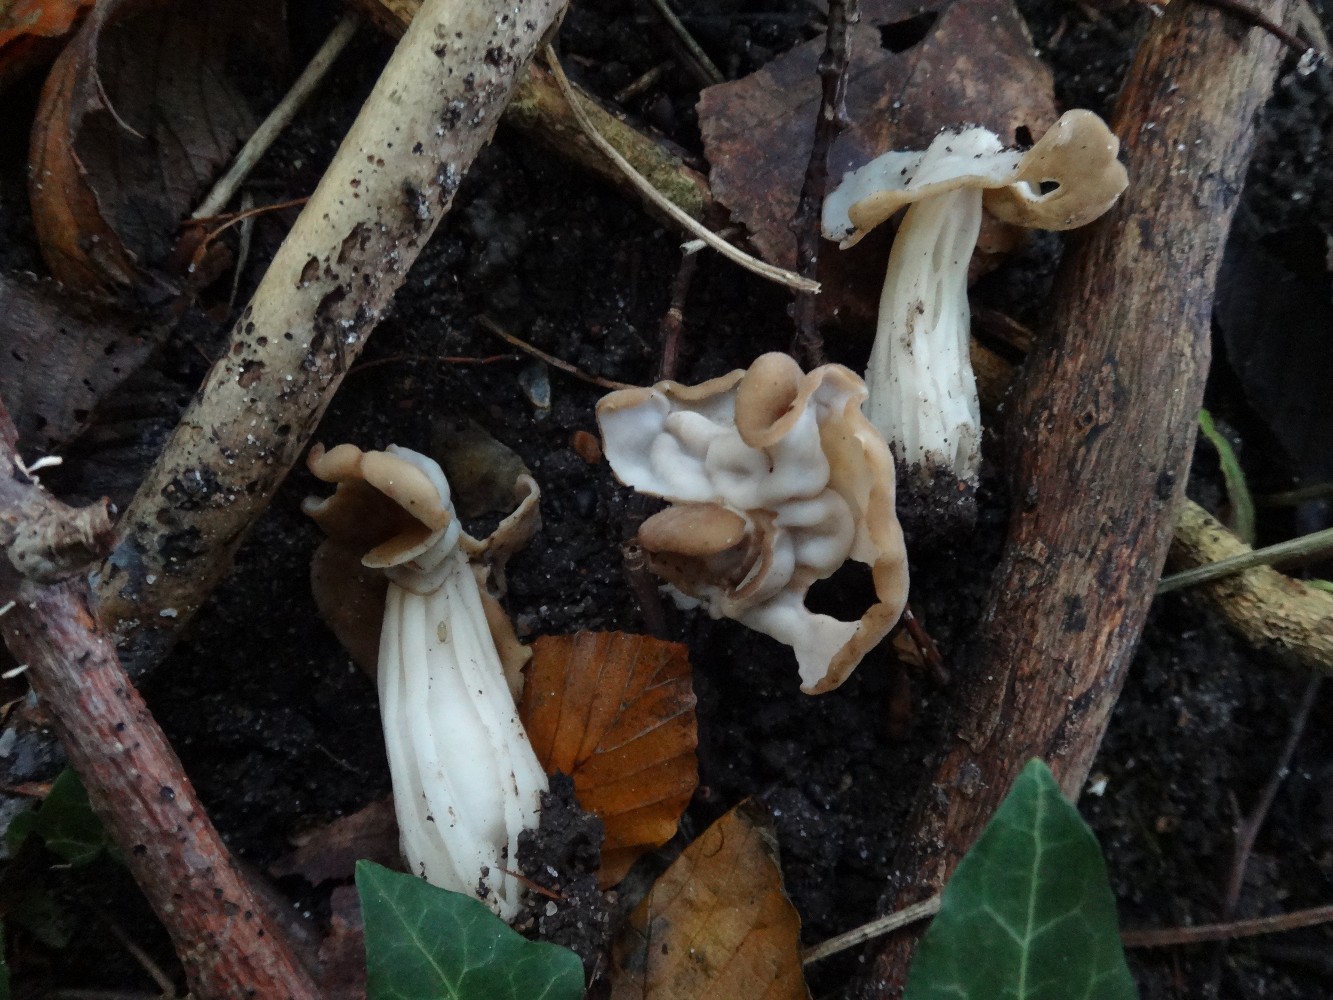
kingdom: Fungi
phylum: Ascomycota
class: Pezizomycetes
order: Pezizales
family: Helvellaceae
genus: Helvella
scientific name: Helvella crispa
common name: kruset foldhat
